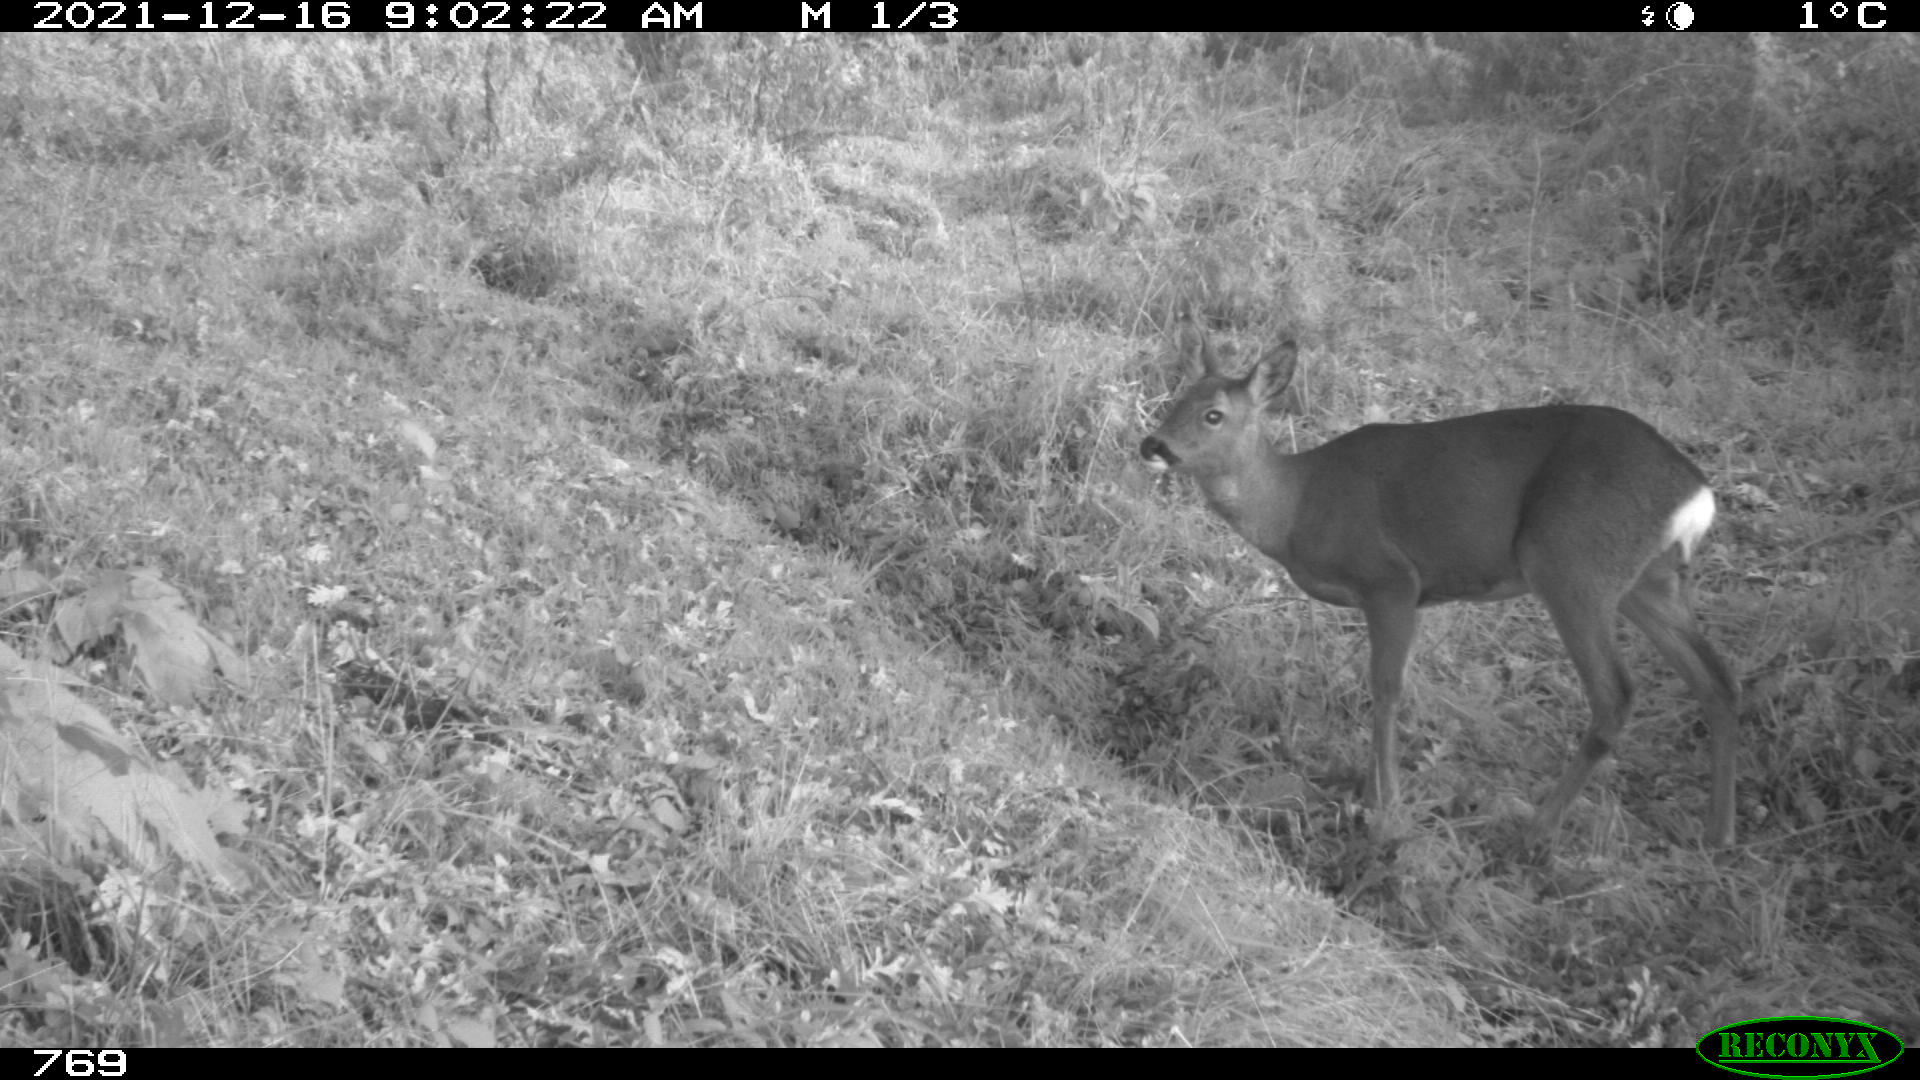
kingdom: Animalia
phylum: Chordata
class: Mammalia
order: Artiodactyla
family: Cervidae
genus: Capreolus
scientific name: Capreolus capreolus
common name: Western roe deer
